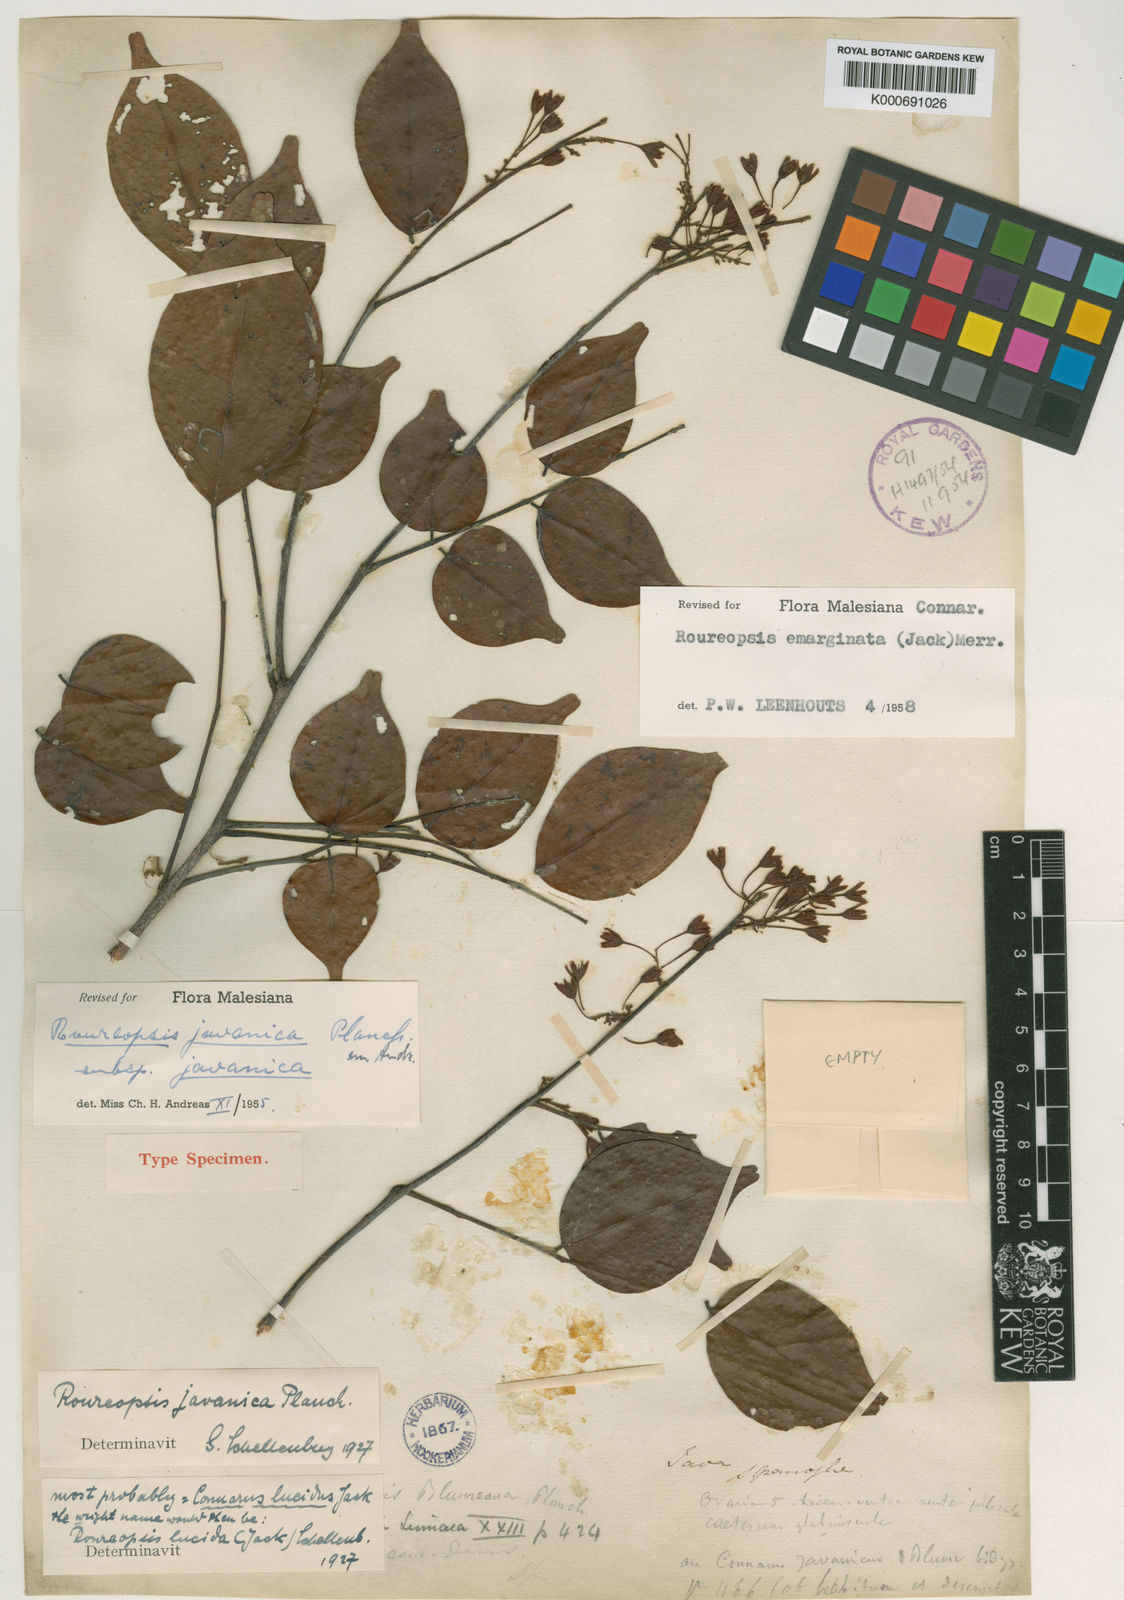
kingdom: Plantae
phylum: Tracheophyta
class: Magnoliopsida
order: Oxalidales
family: Connaraceae
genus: Rourea
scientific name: Rourea emarginata
